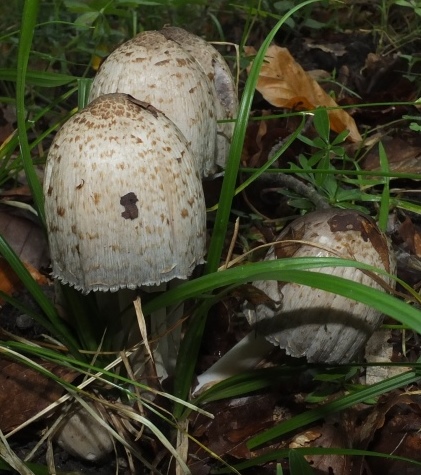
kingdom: Fungi
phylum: Basidiomycota
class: Agaricomycetes
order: Agaricales
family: Psathyrellaceae
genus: Coprinopsis
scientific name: Coprinopsis romagnesiana
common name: brunskællet blækhat
